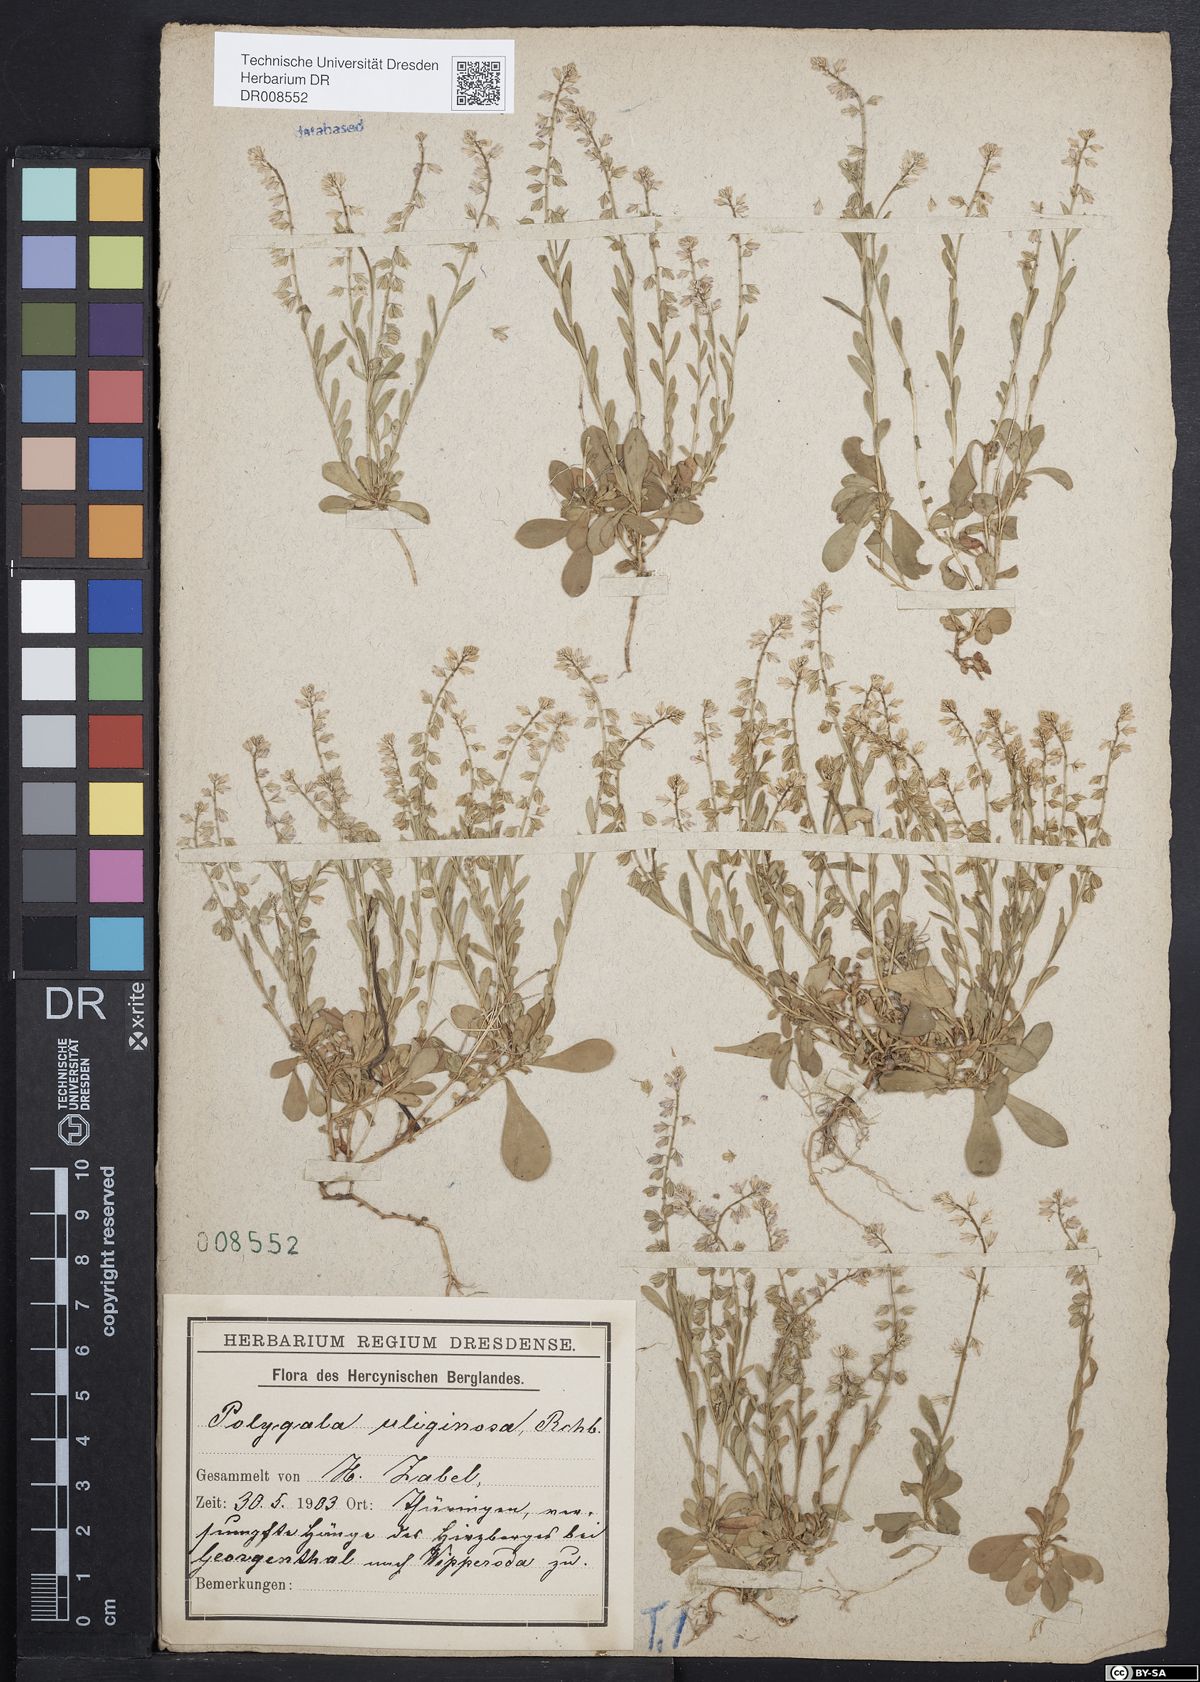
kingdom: Plantae
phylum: Tracheophyta
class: Magnoliopsida
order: Fabales
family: Polygalaceae
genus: Polygala
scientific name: Polygala amarella
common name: Dwarf milkwort
